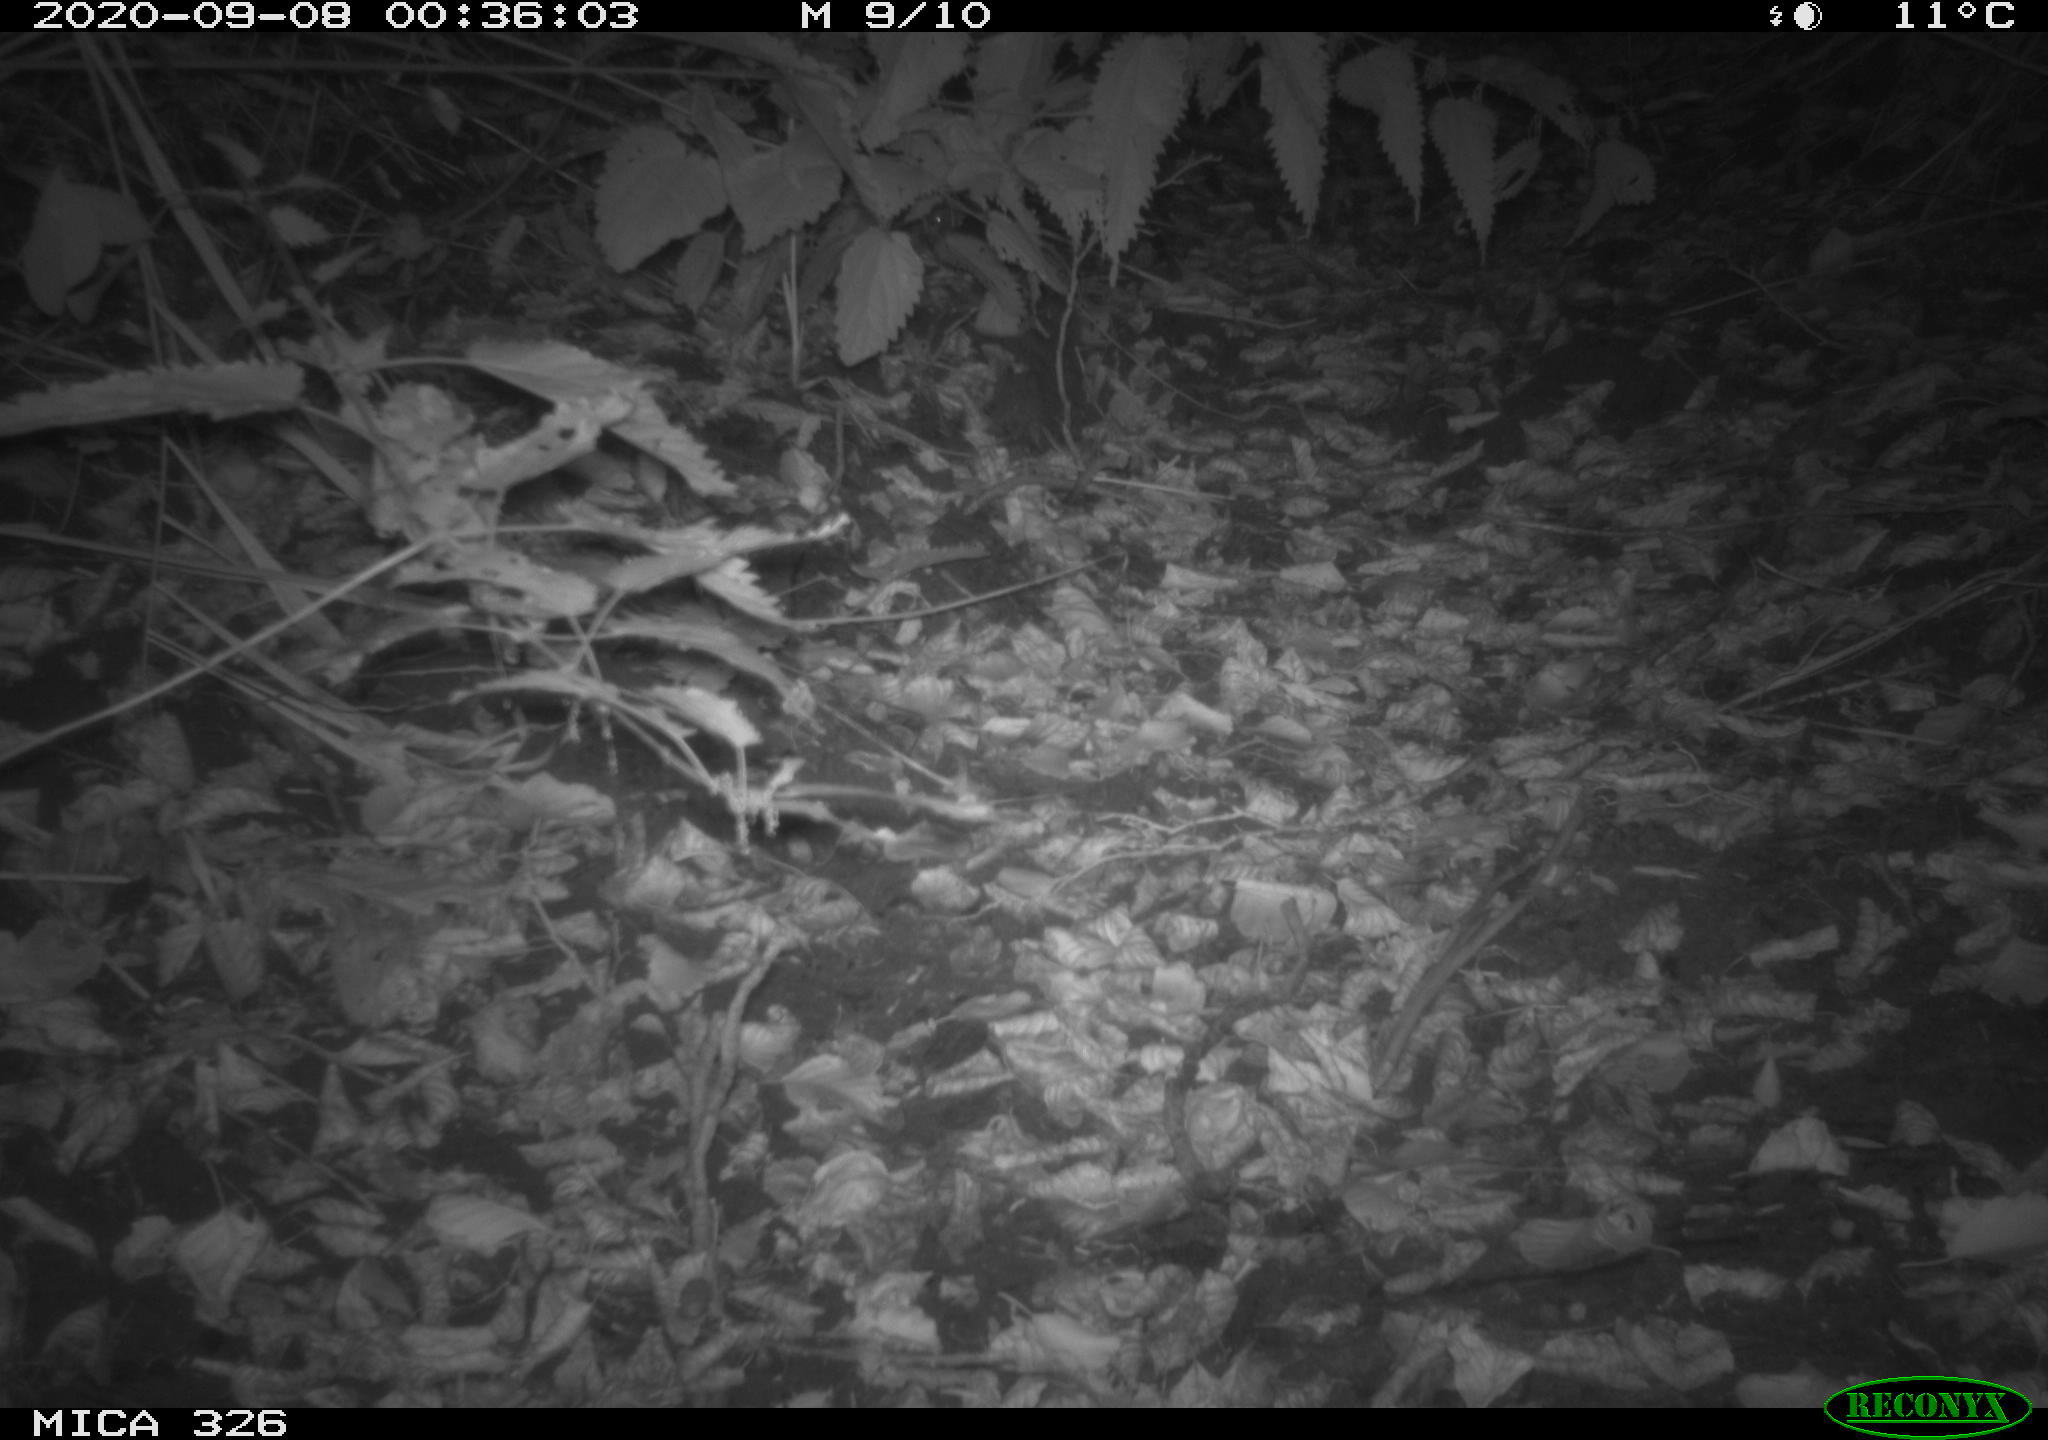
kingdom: Animalia
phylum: Chordata
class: Mammalia
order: Carnivora
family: Mustelidae
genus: Lutra
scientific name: Lutra lutra
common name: European otter
